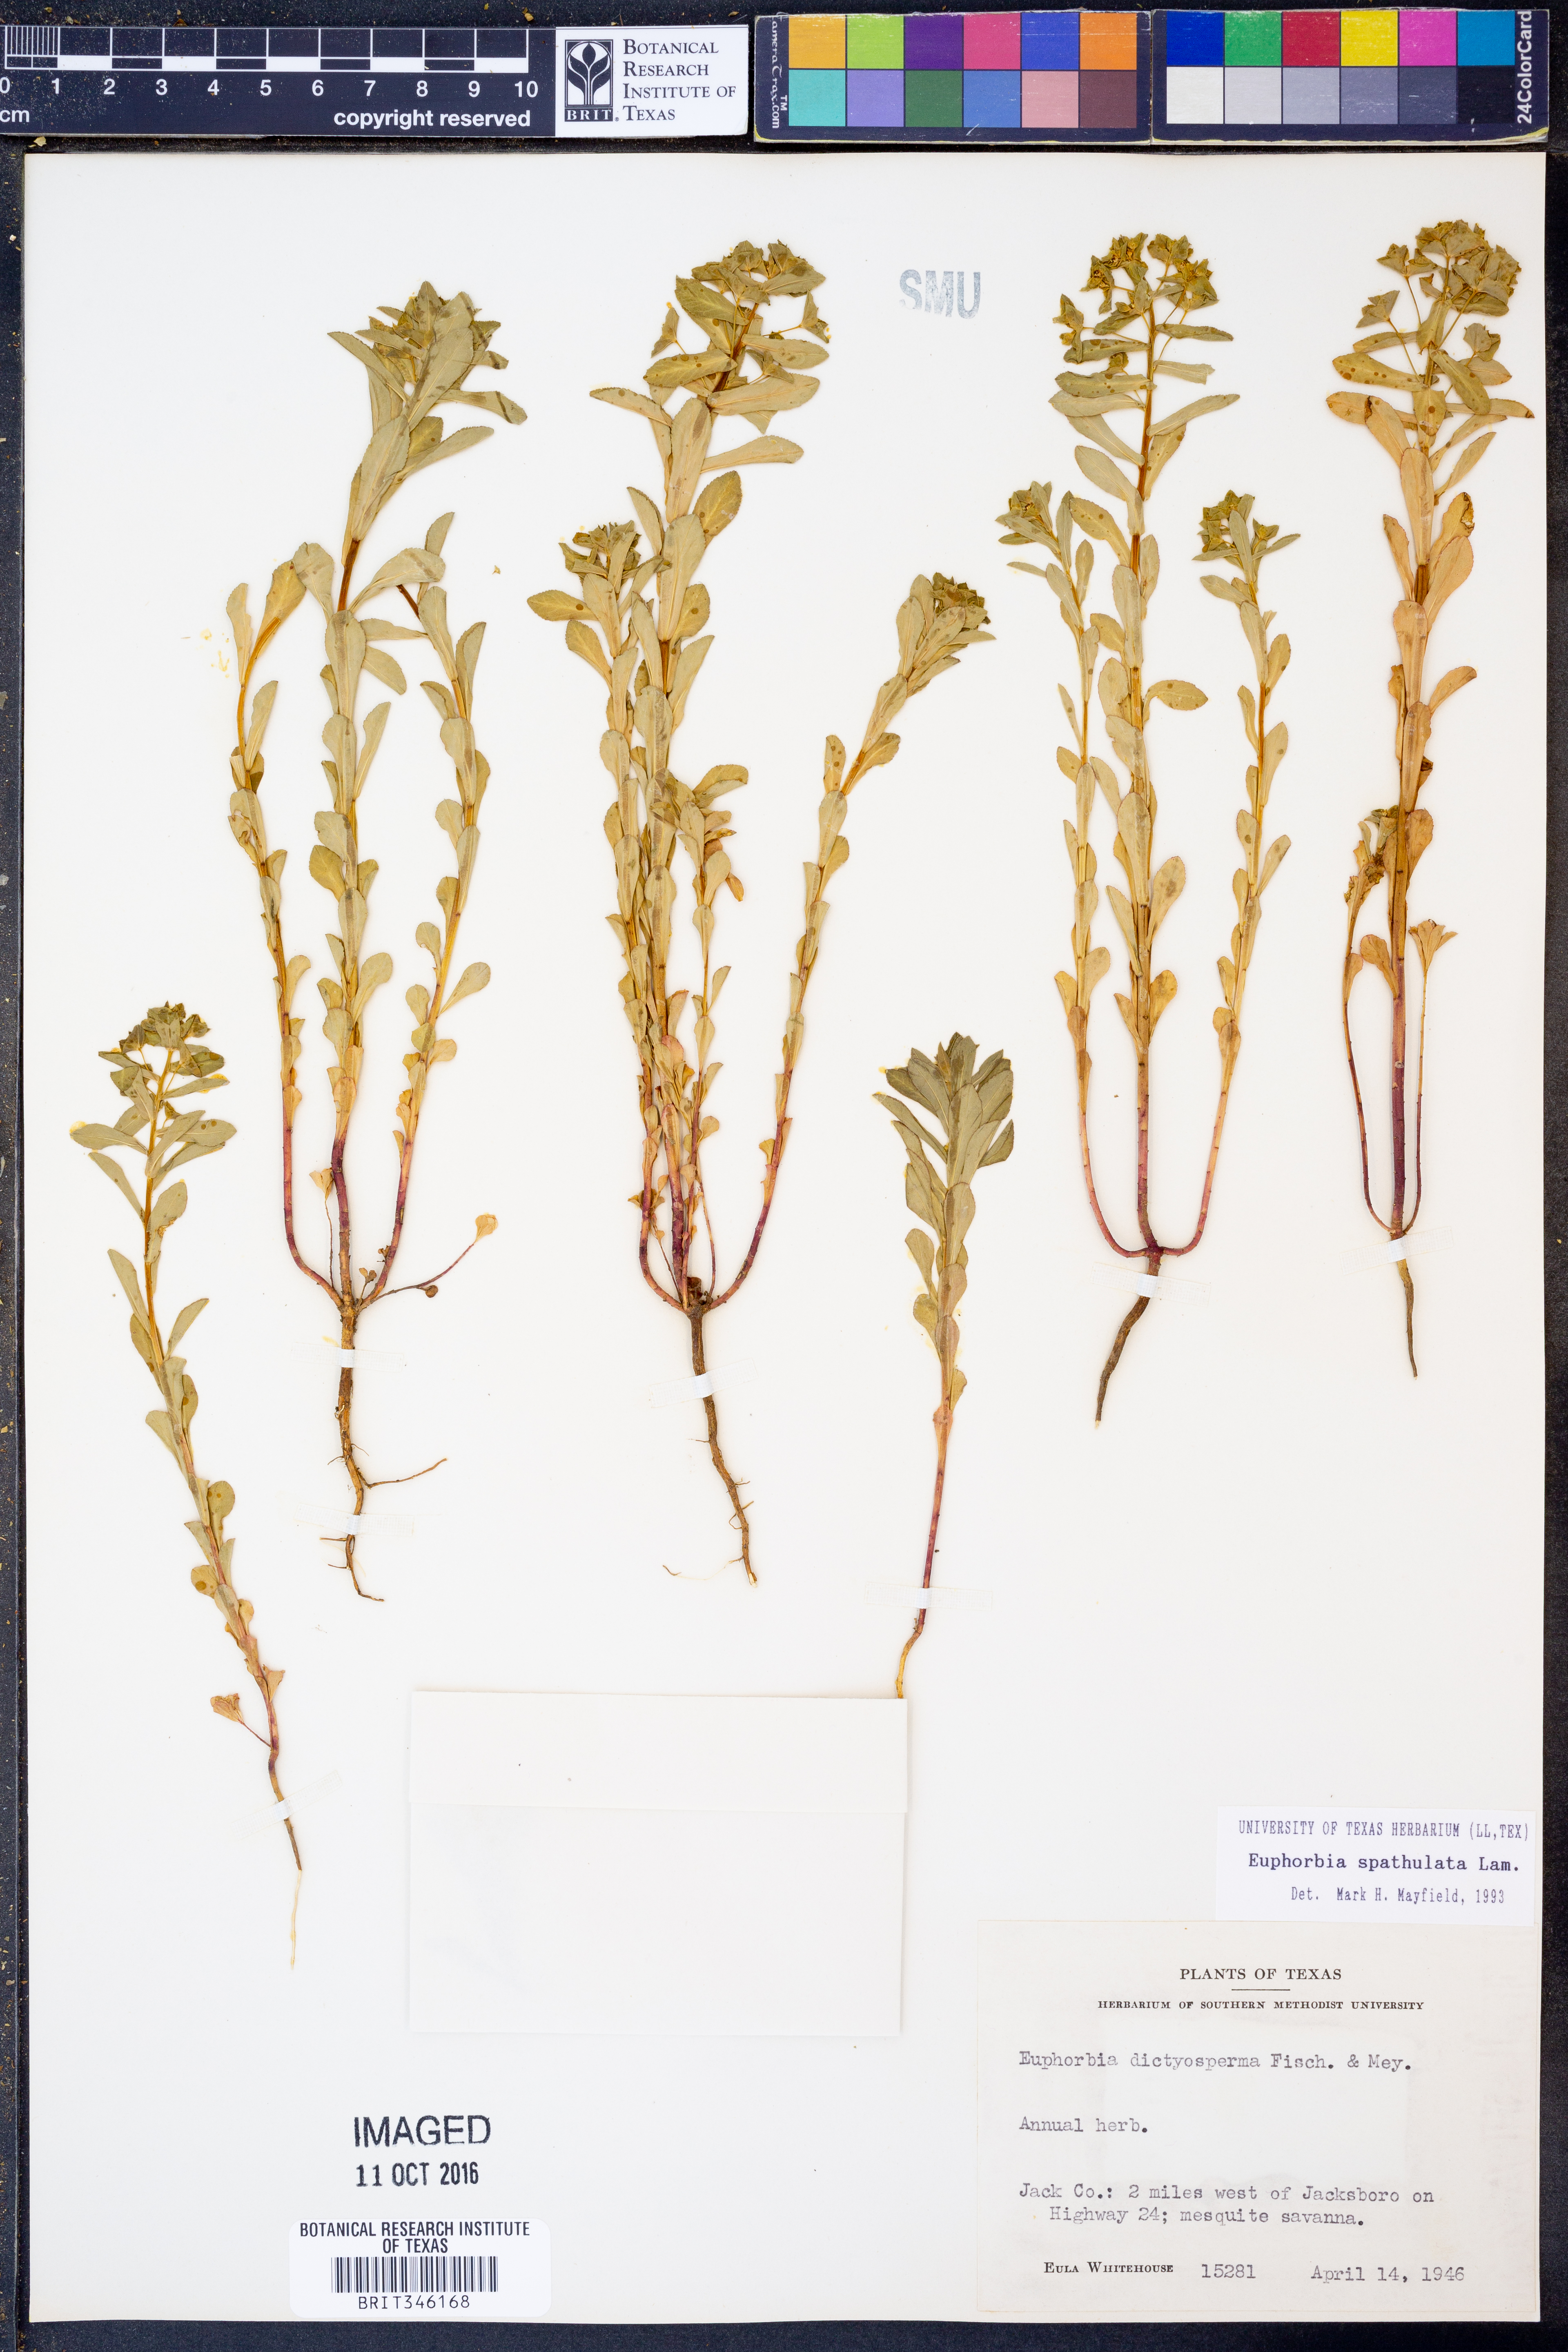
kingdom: Plantae
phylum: Tracheophyta
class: Magnoliopsida
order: Malpighiales
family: Euphorbiaceae
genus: Euphorbia
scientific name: Euphorbia spathulata
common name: Blunt spurge
